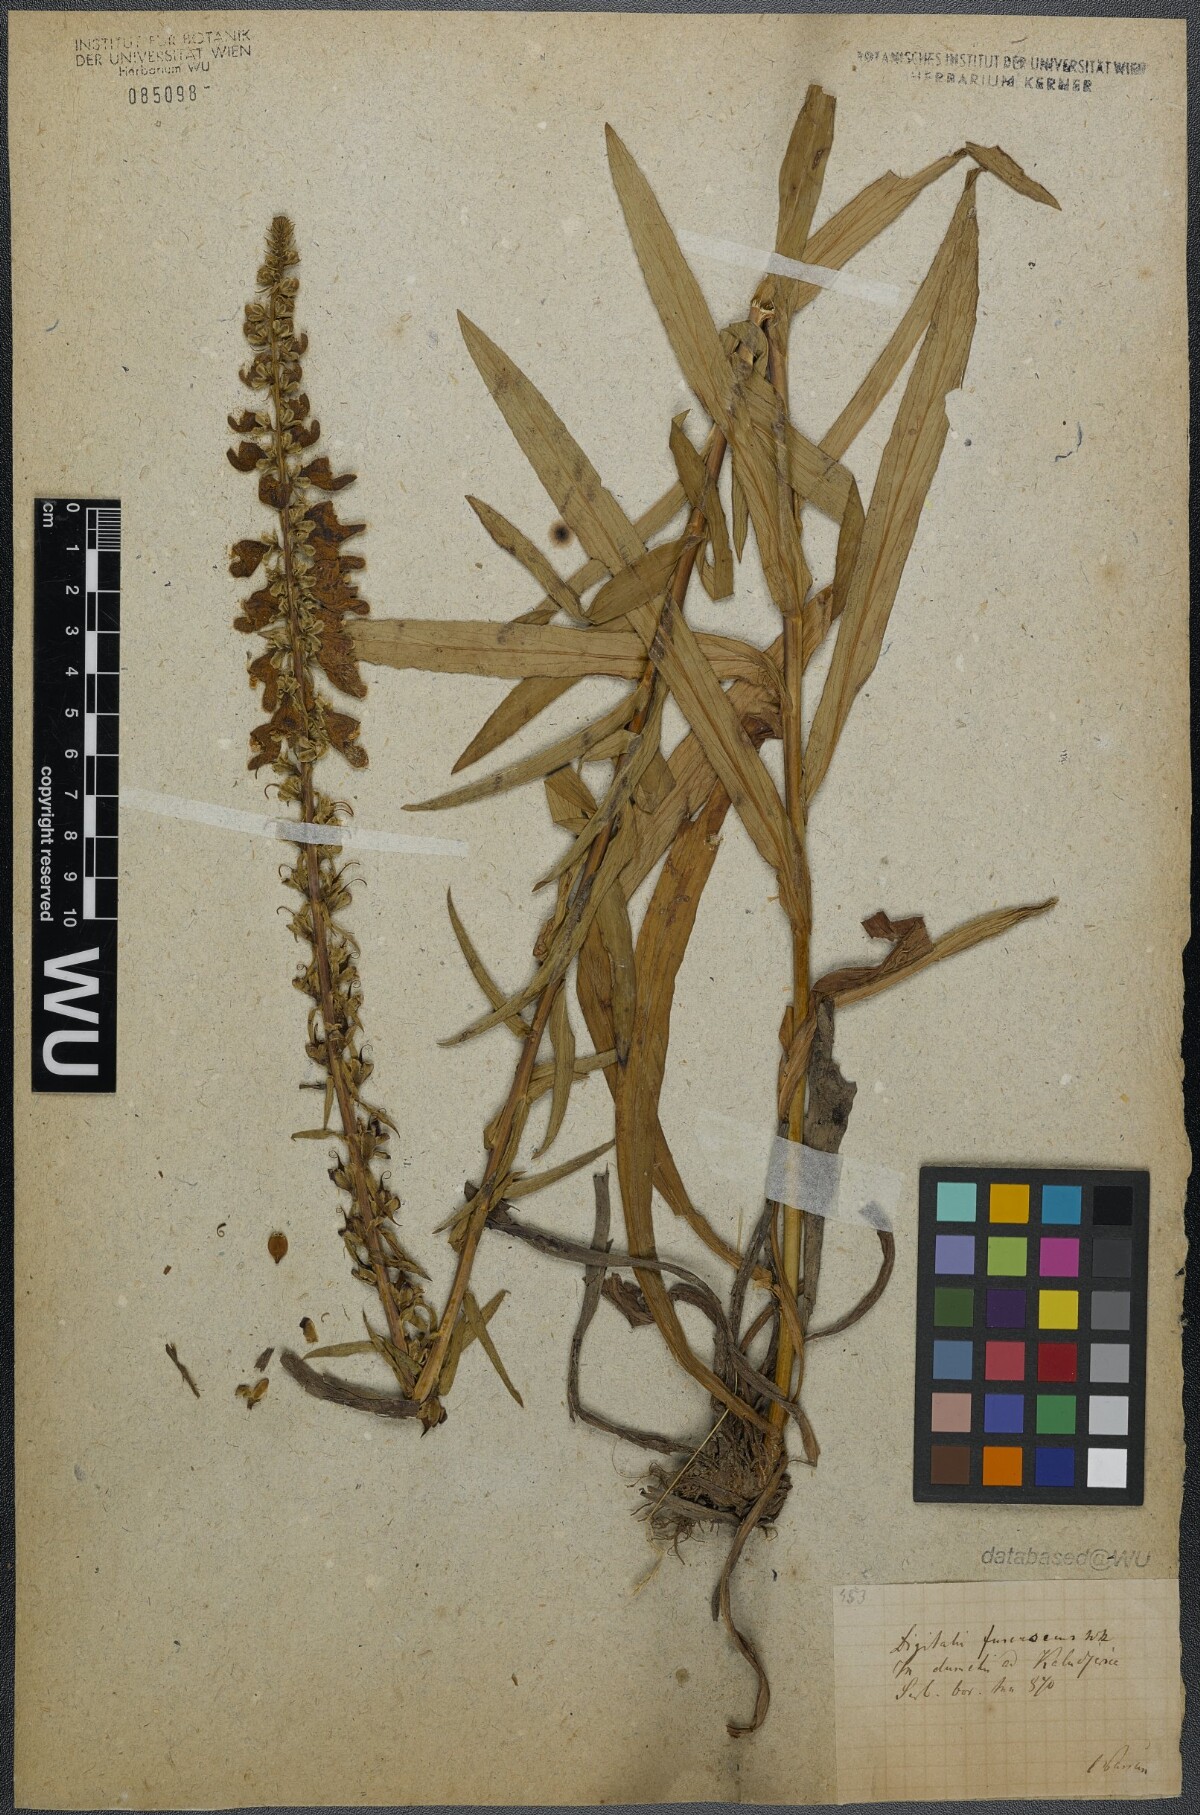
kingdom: Plantae
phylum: Tracheophyta
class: Magnoliopsida
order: Lamiales
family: Plantaginaceae
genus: Digitalis
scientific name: Digitalis fulva
